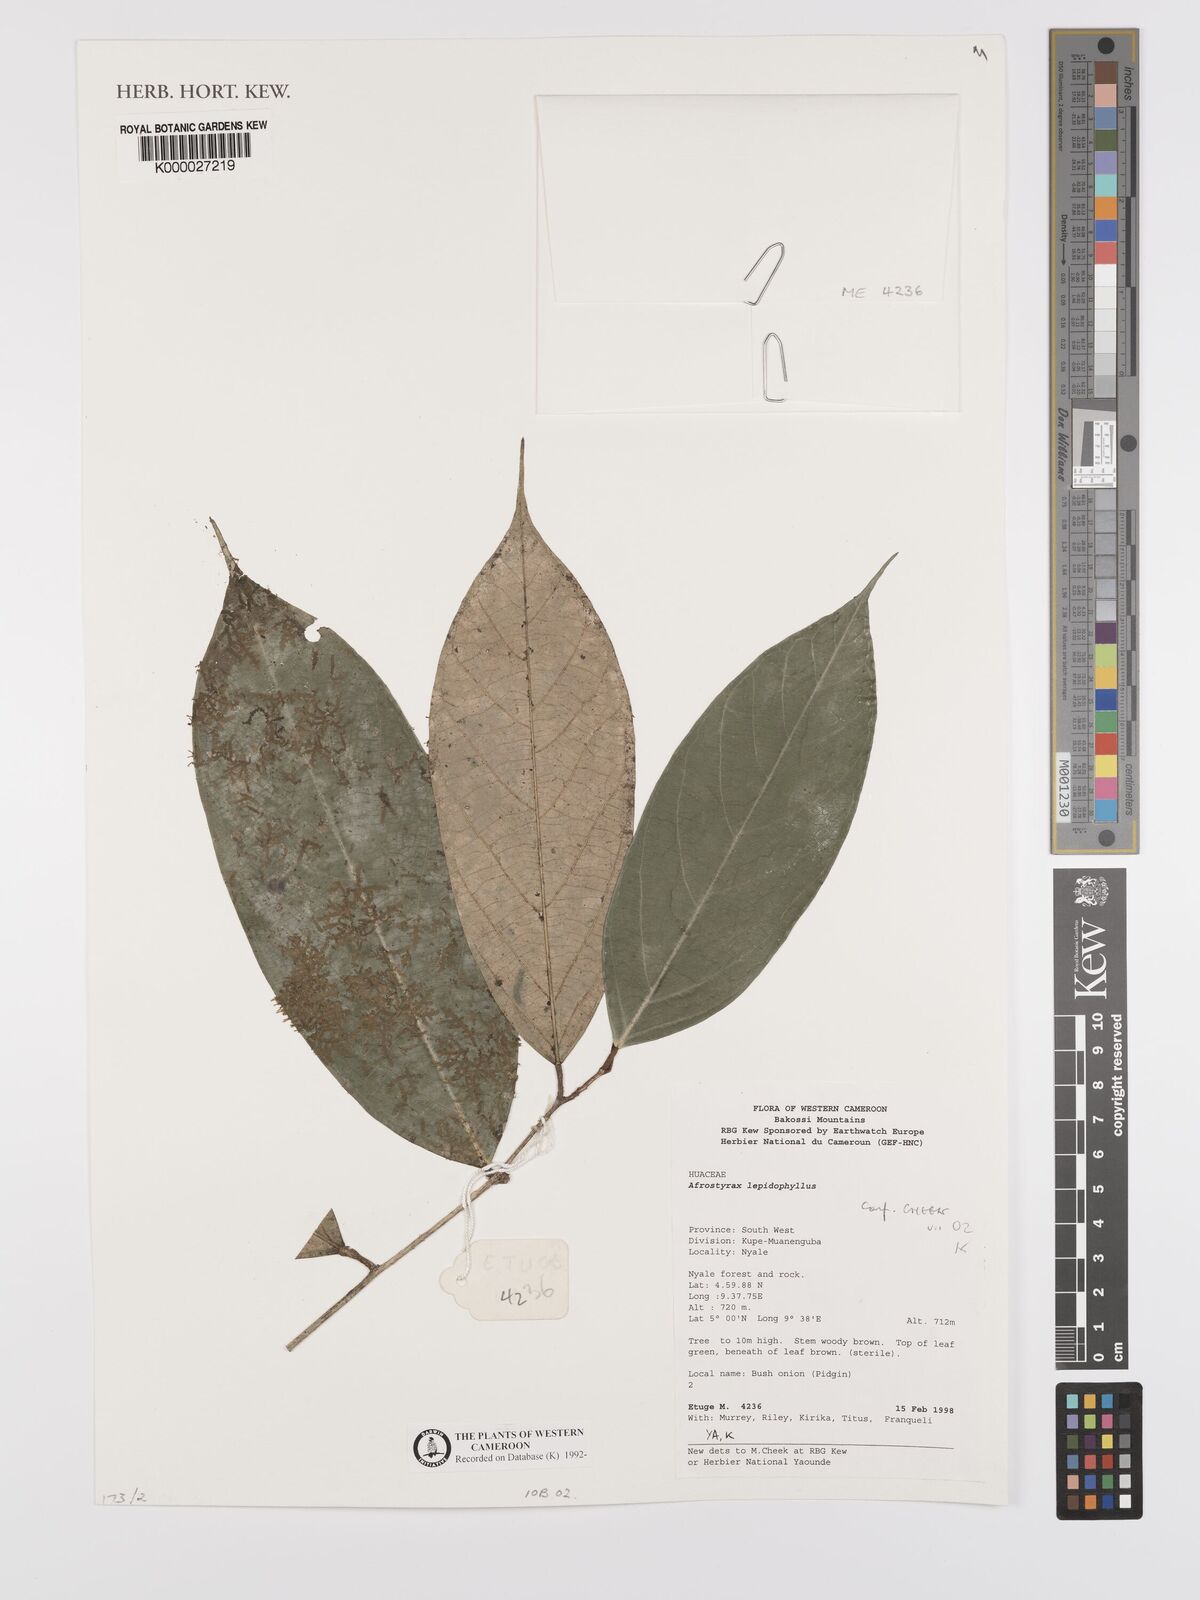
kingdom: Plantae
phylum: Tracheophyta
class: Magnoliopsida
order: Oxalidales
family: Huaceae
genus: Afrostyrax
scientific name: Afrostyrax lepidophyllus
